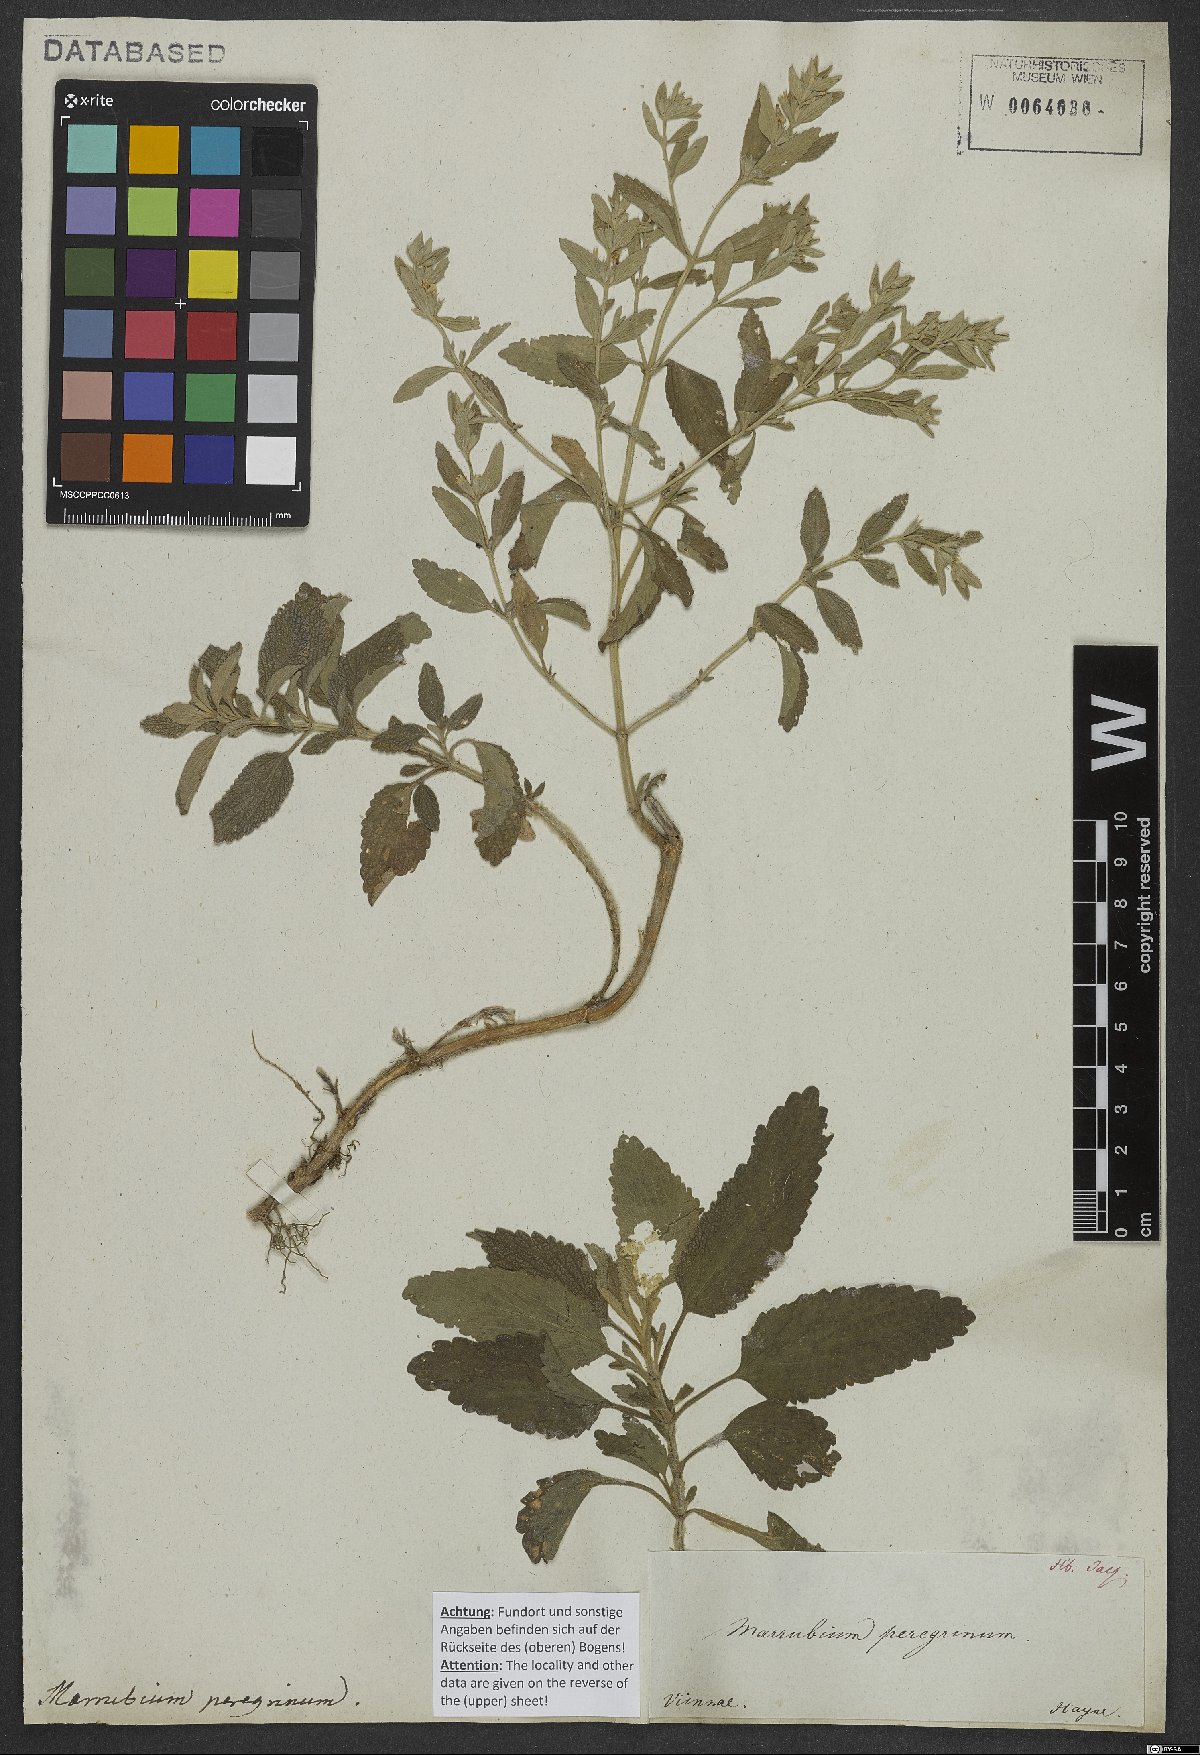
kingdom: Plantae
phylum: Tracheophyta
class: Magnoliopsida
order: Lamiales
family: Lamiaceae
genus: Marrubium
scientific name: Marrubium peregrinum
